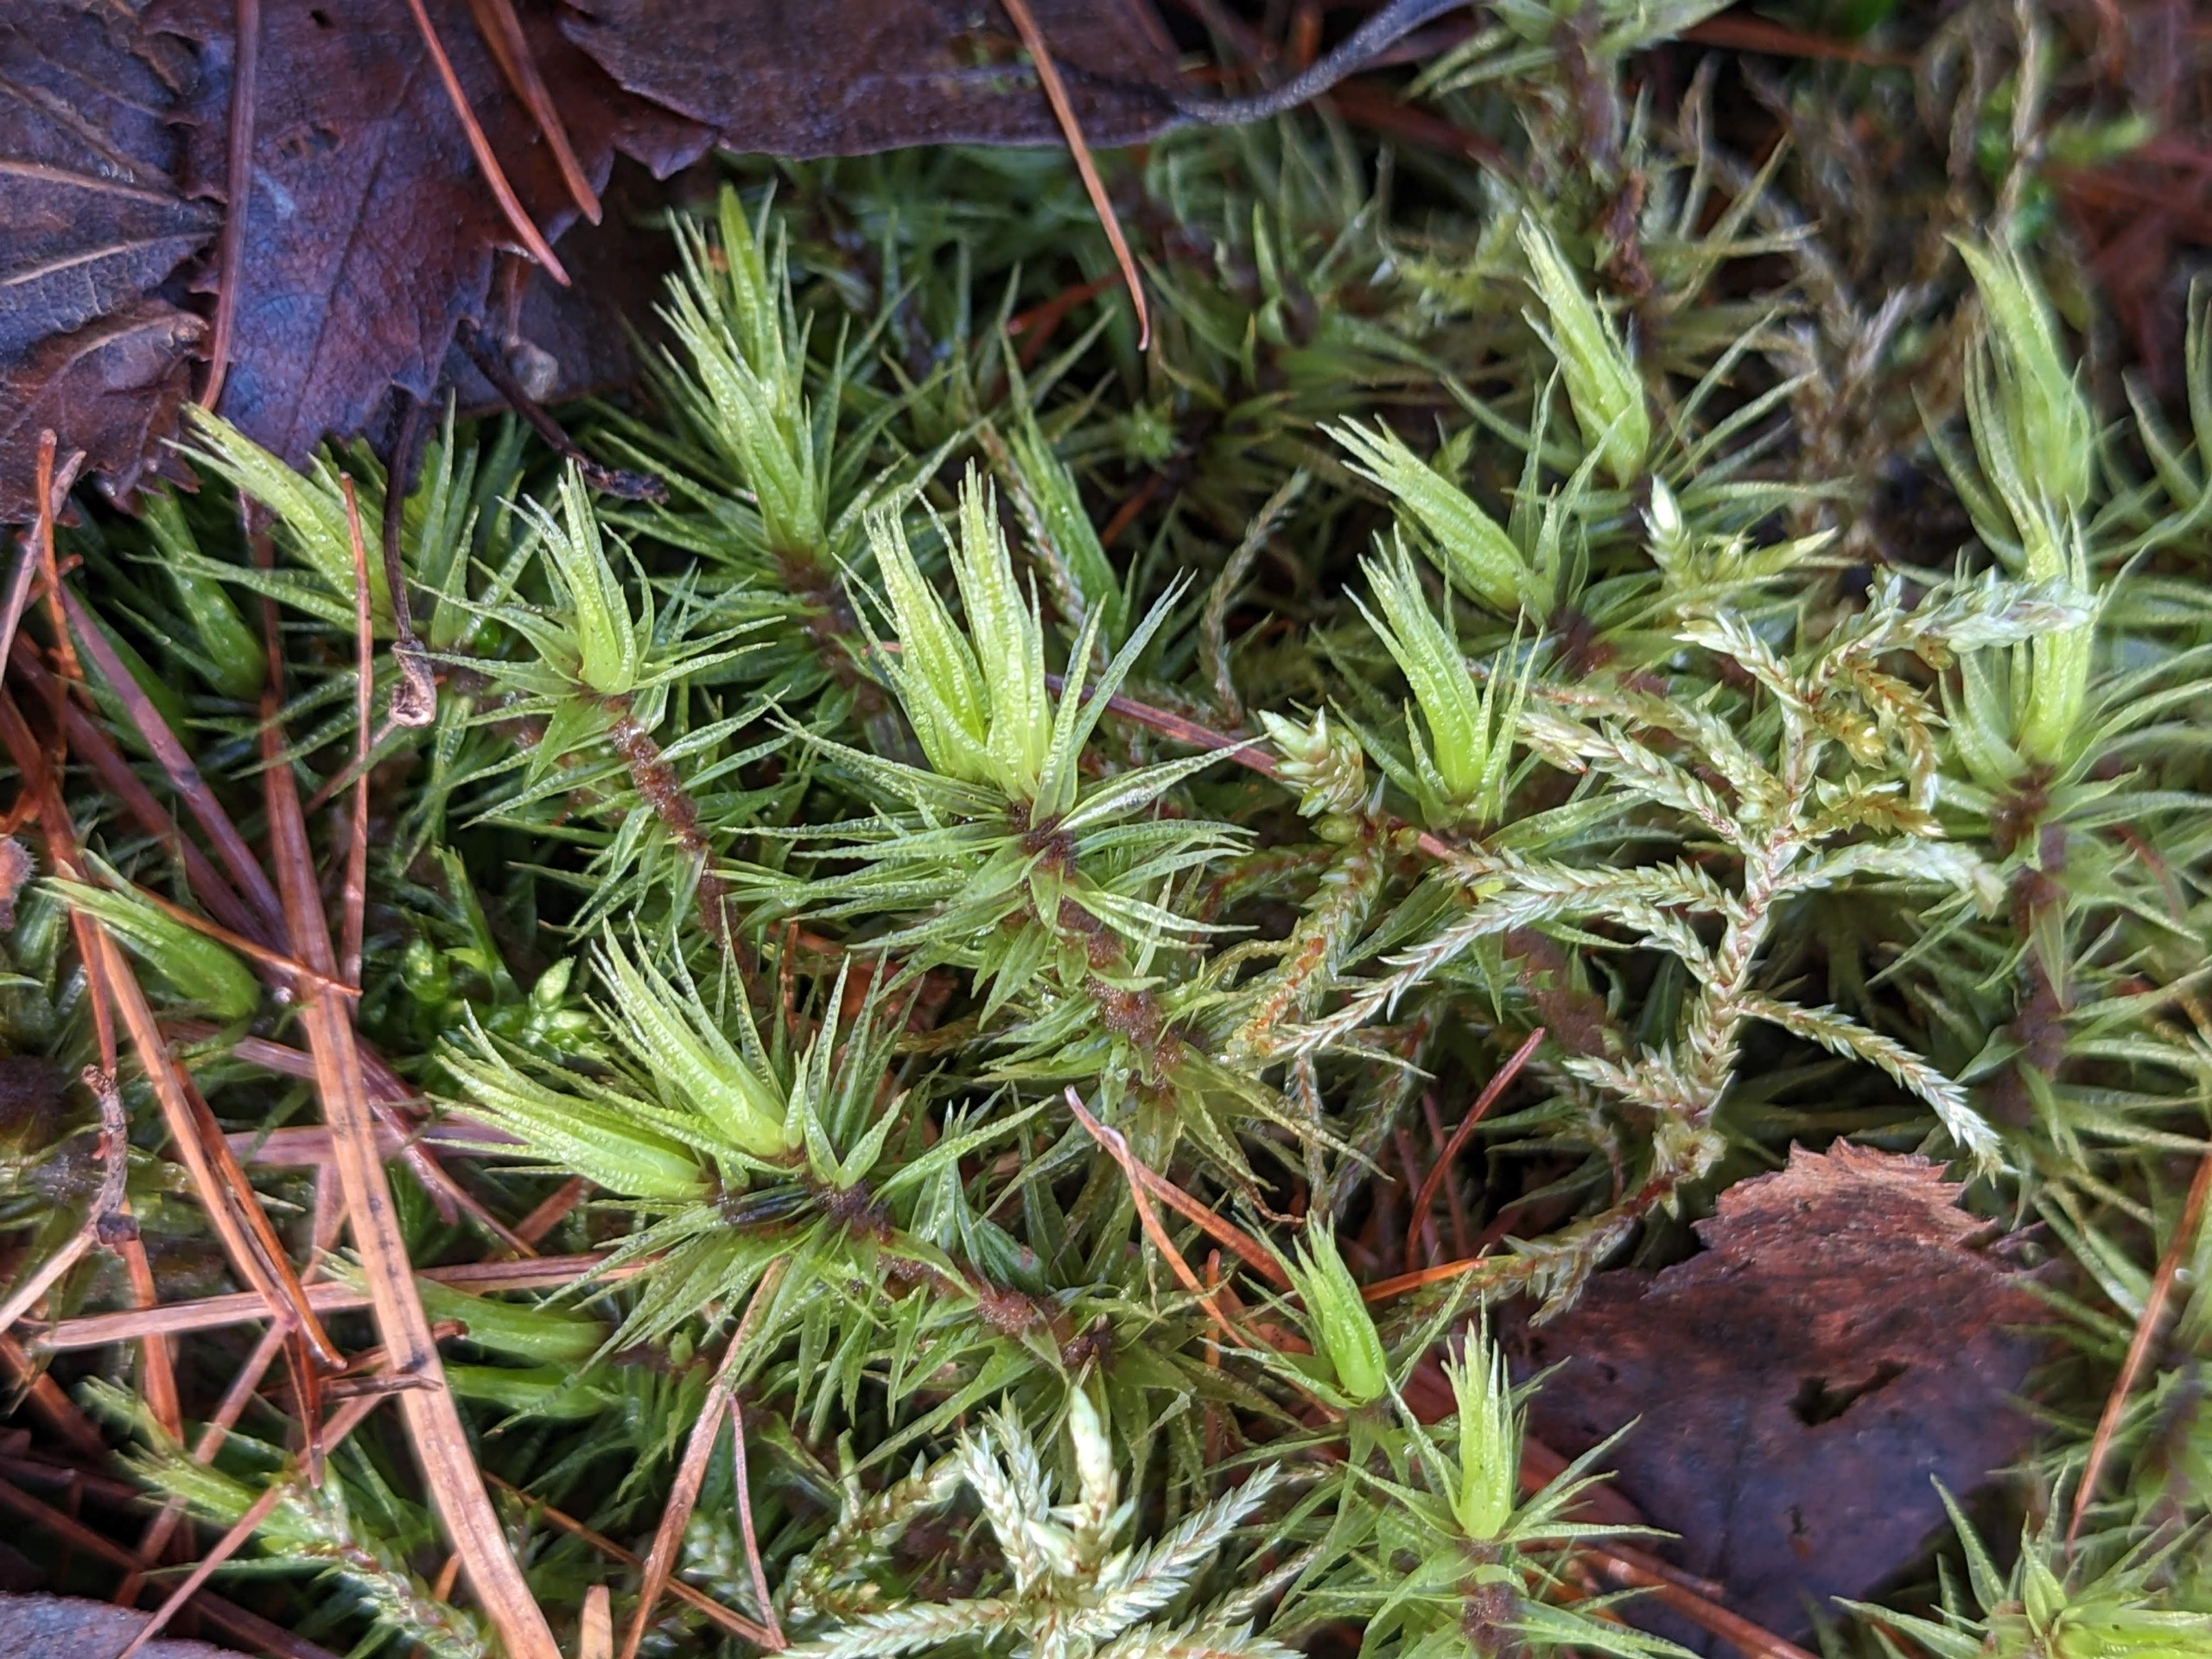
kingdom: Plantae
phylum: Bryophyta
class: Bryopsida
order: Dicranales
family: Dicranaceae
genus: Dicranum
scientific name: Dicranum polysetum
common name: Bølgebladet kløvtand
